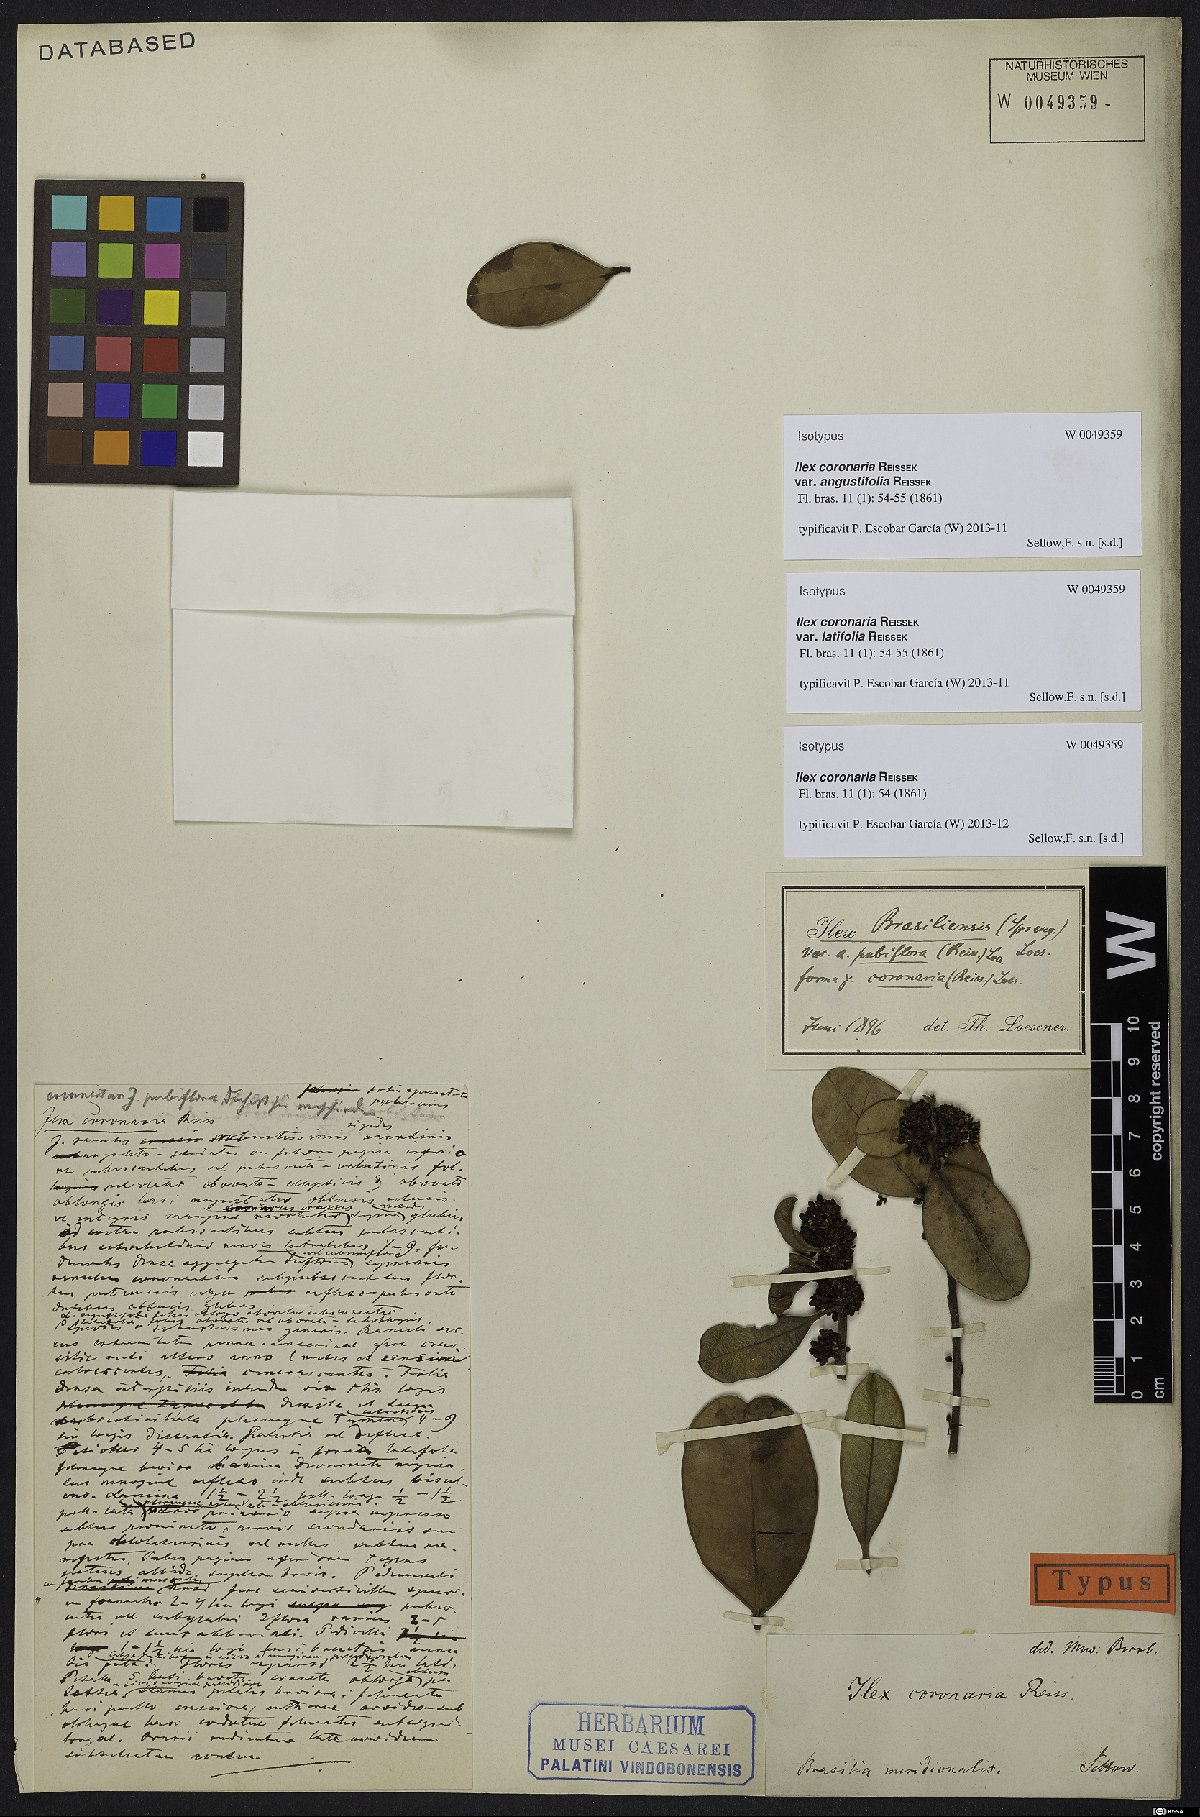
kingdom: Plantae
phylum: Tracheophyta
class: Magnoliopsida
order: Aquifoliales
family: Aquifoliaceae
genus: Ilex
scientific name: Ilex coronaria
